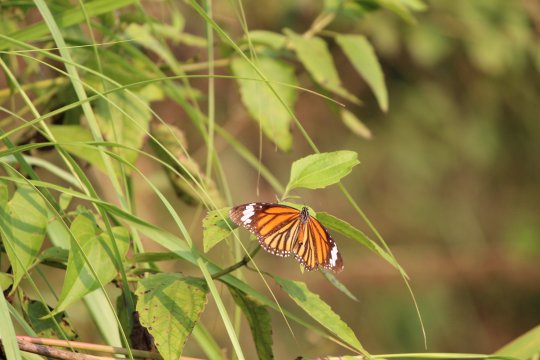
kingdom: Animalia
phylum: Arthropoda
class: Insecta
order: Lepidoptera
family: Nymphalidae
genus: Danaus
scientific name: Danaus genutia
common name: Common Tiger
